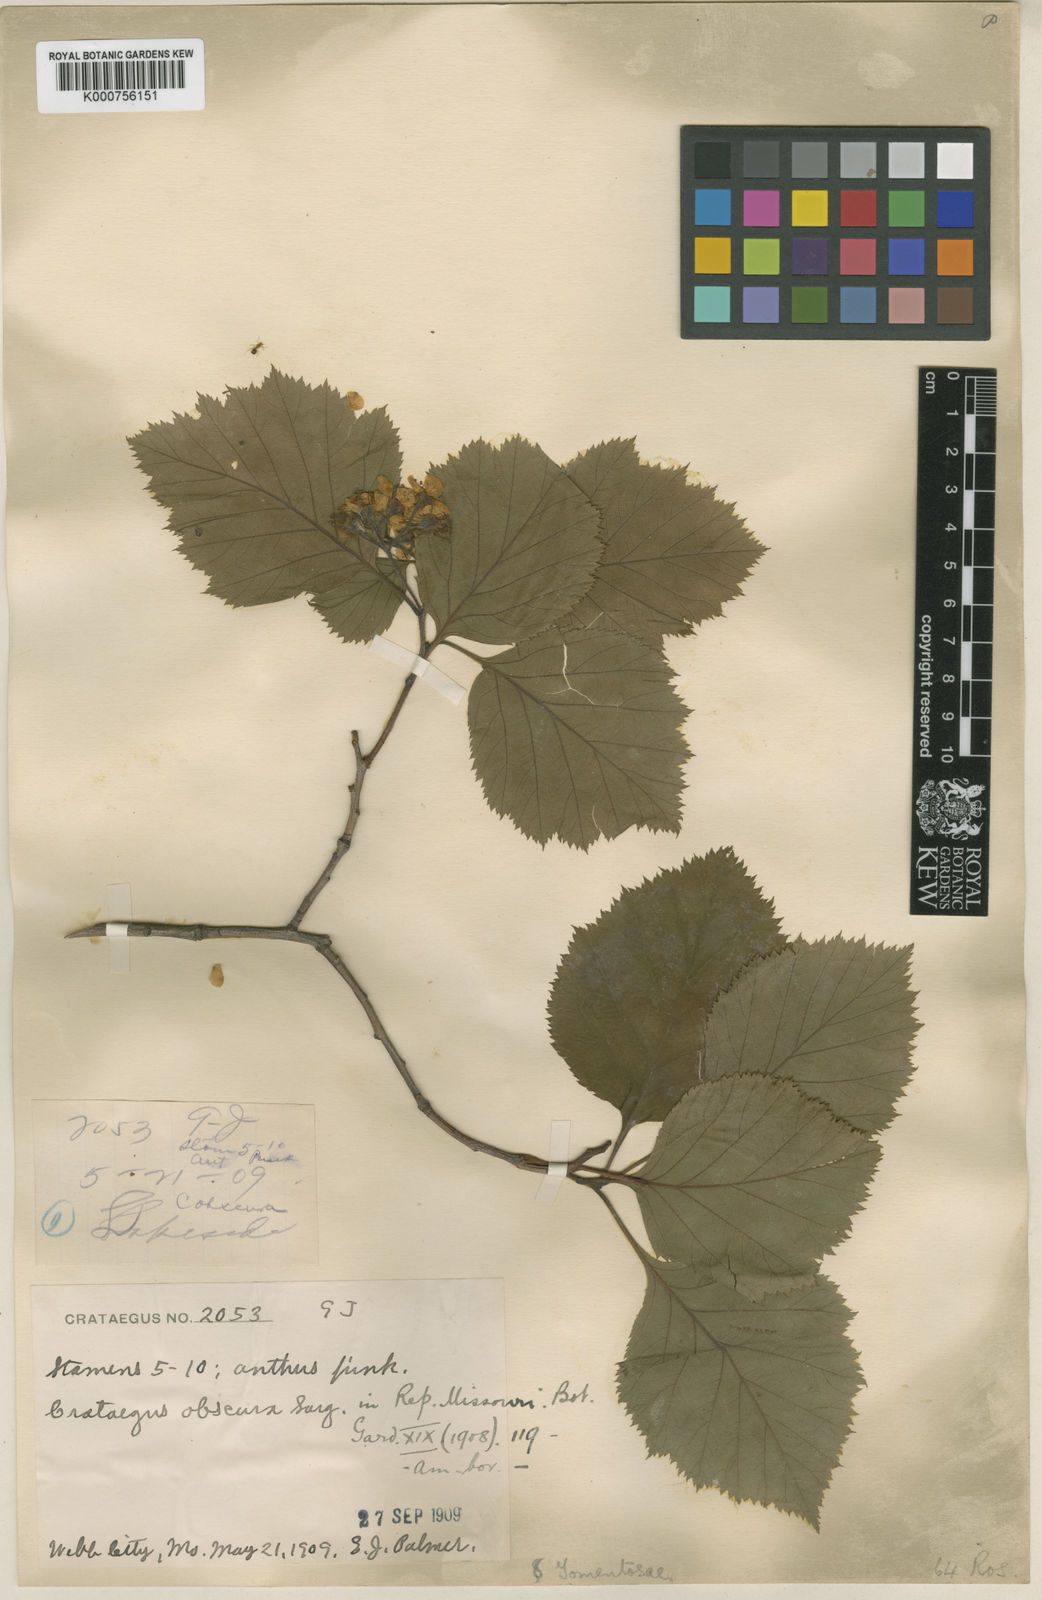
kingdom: Plantae
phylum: Tracheophyta
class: Magnoliopsida
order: Rosales
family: Rosaceae
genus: Crataegus
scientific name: Crataegus obscura
